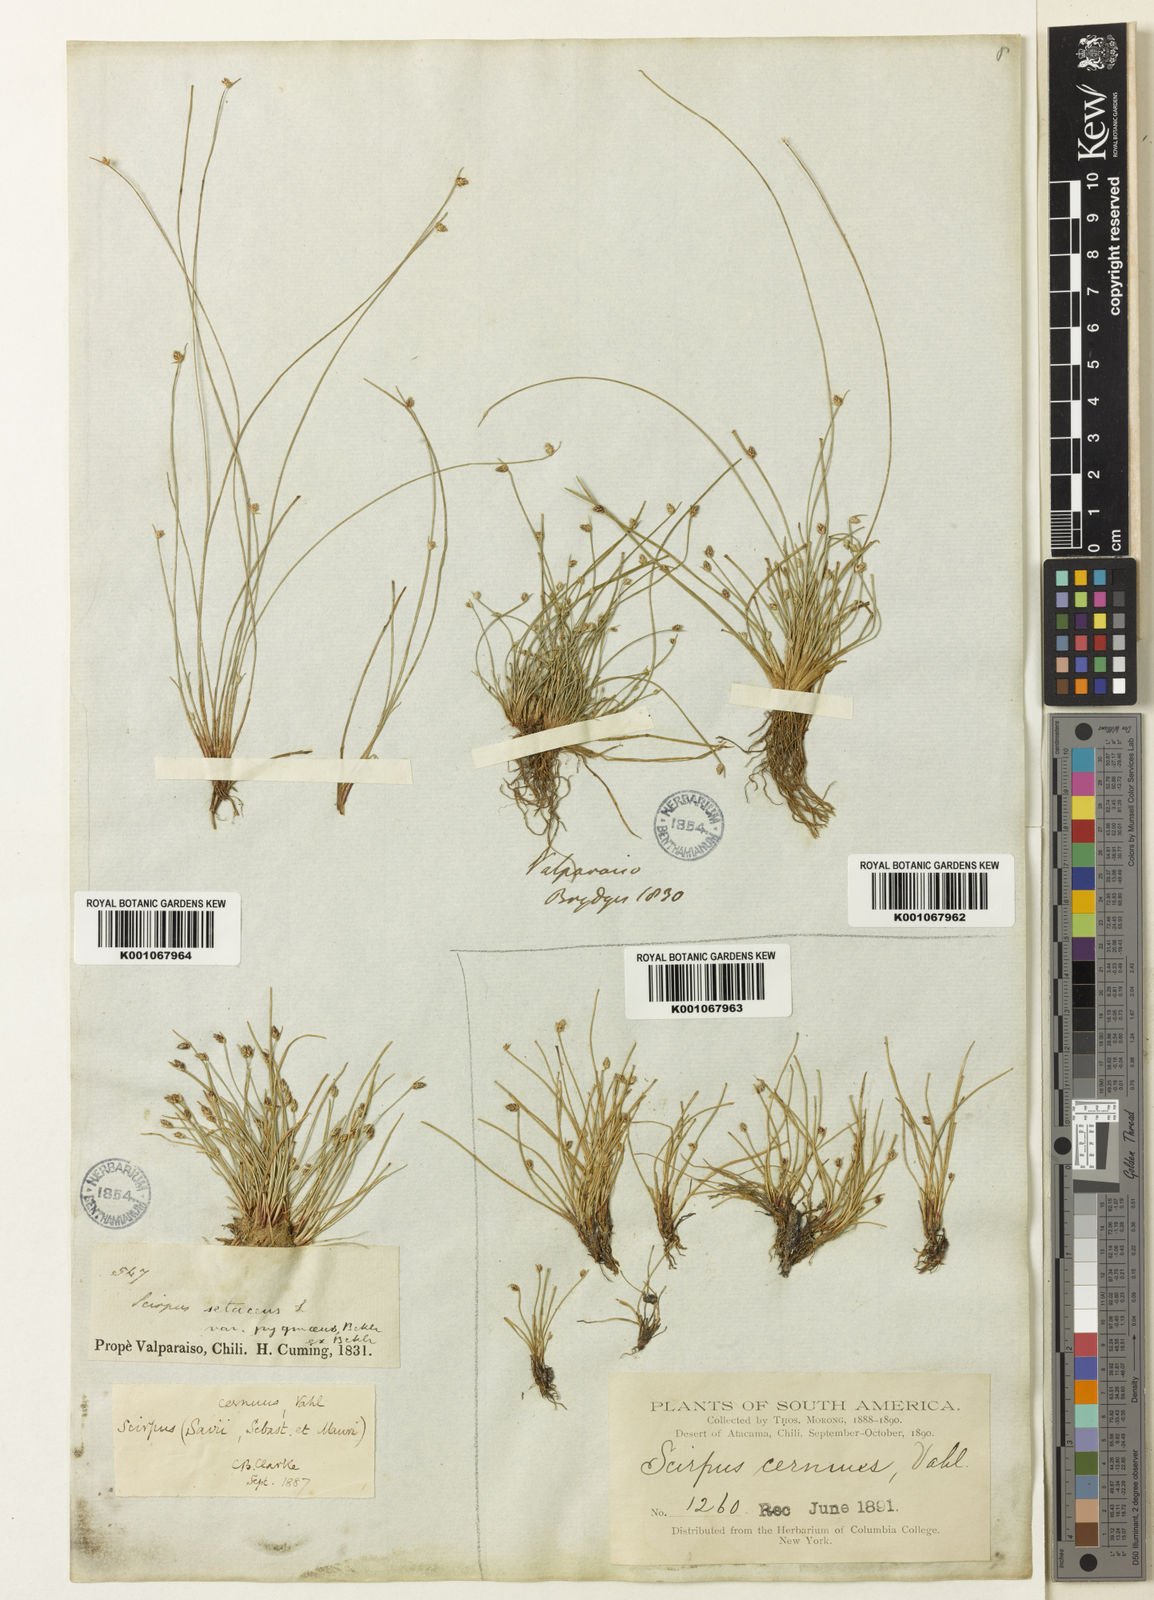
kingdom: Plantae
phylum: Tracheophyta
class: Liliopsida
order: Poales
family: Cyperaceae
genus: Isolepis
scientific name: Isolepis cernua
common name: Slender club-rush
